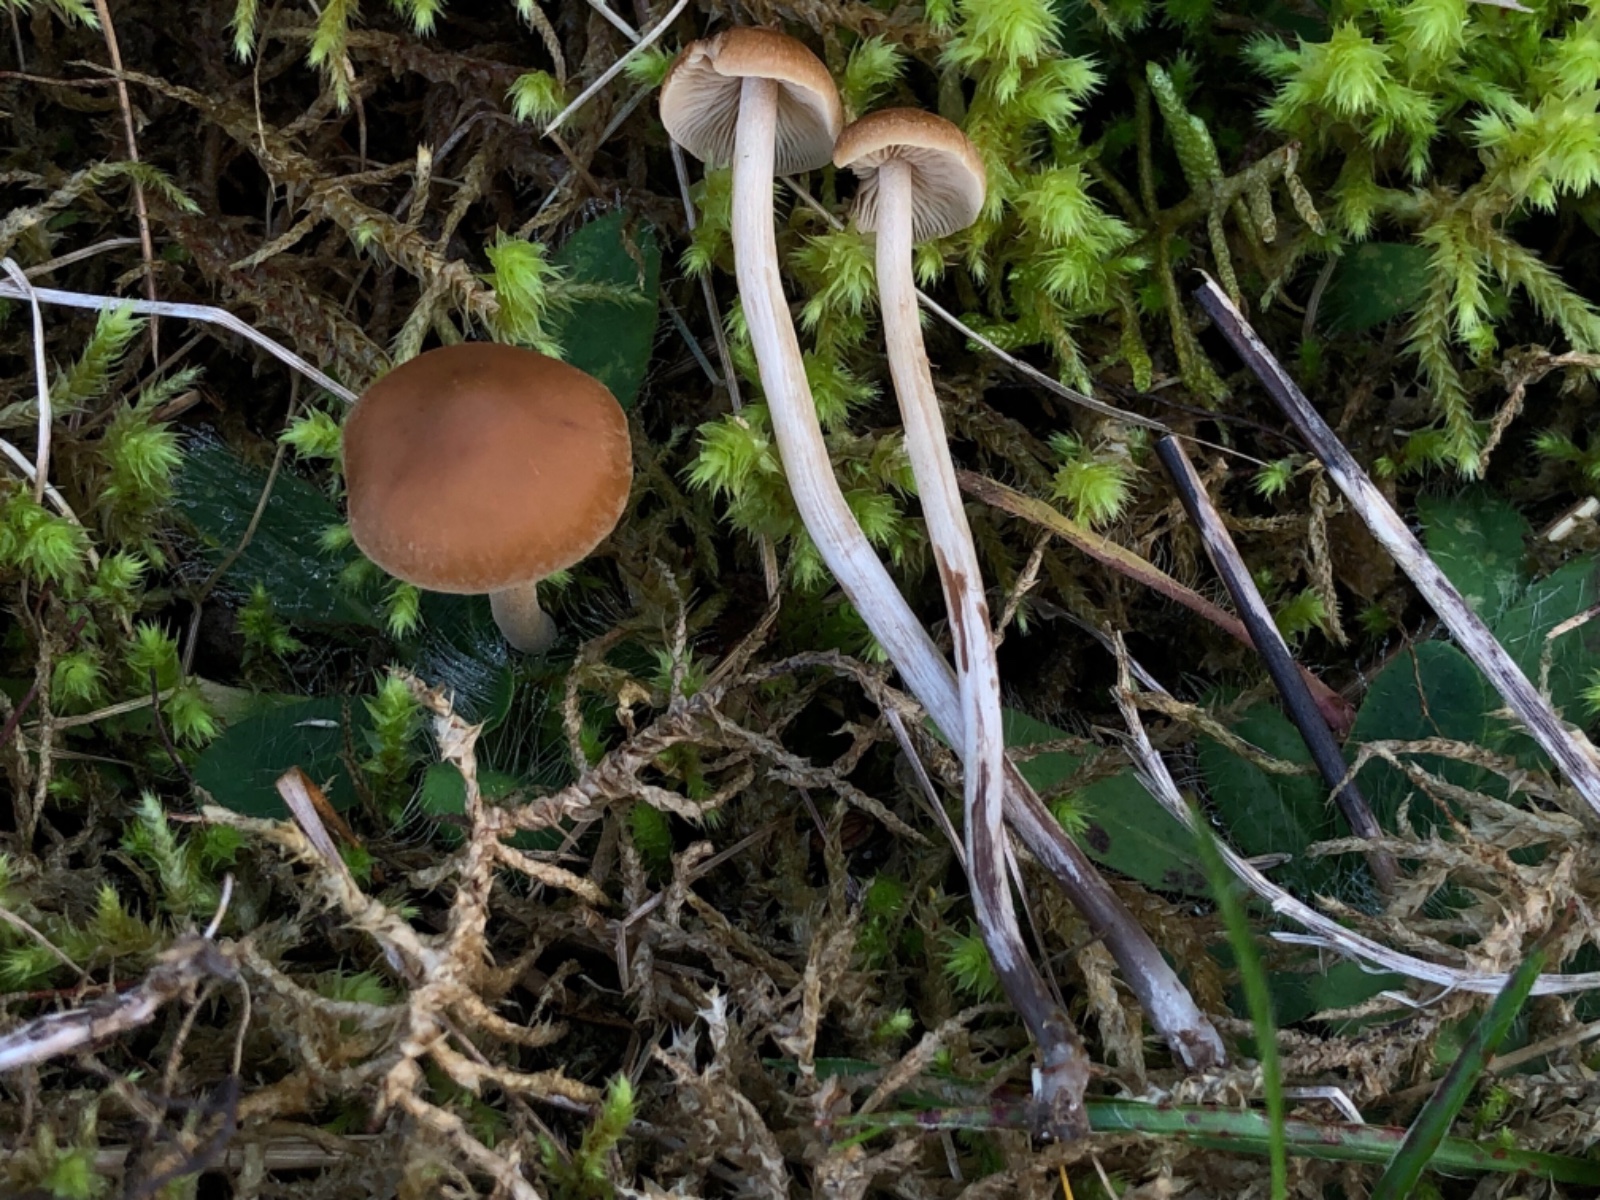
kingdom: Fungi
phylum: Basidiomycota
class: Agaricomycetes
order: Agaricales
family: Hymenogastraceae
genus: Naucoria
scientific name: Naucoria amarescens
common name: bitter knaphat
